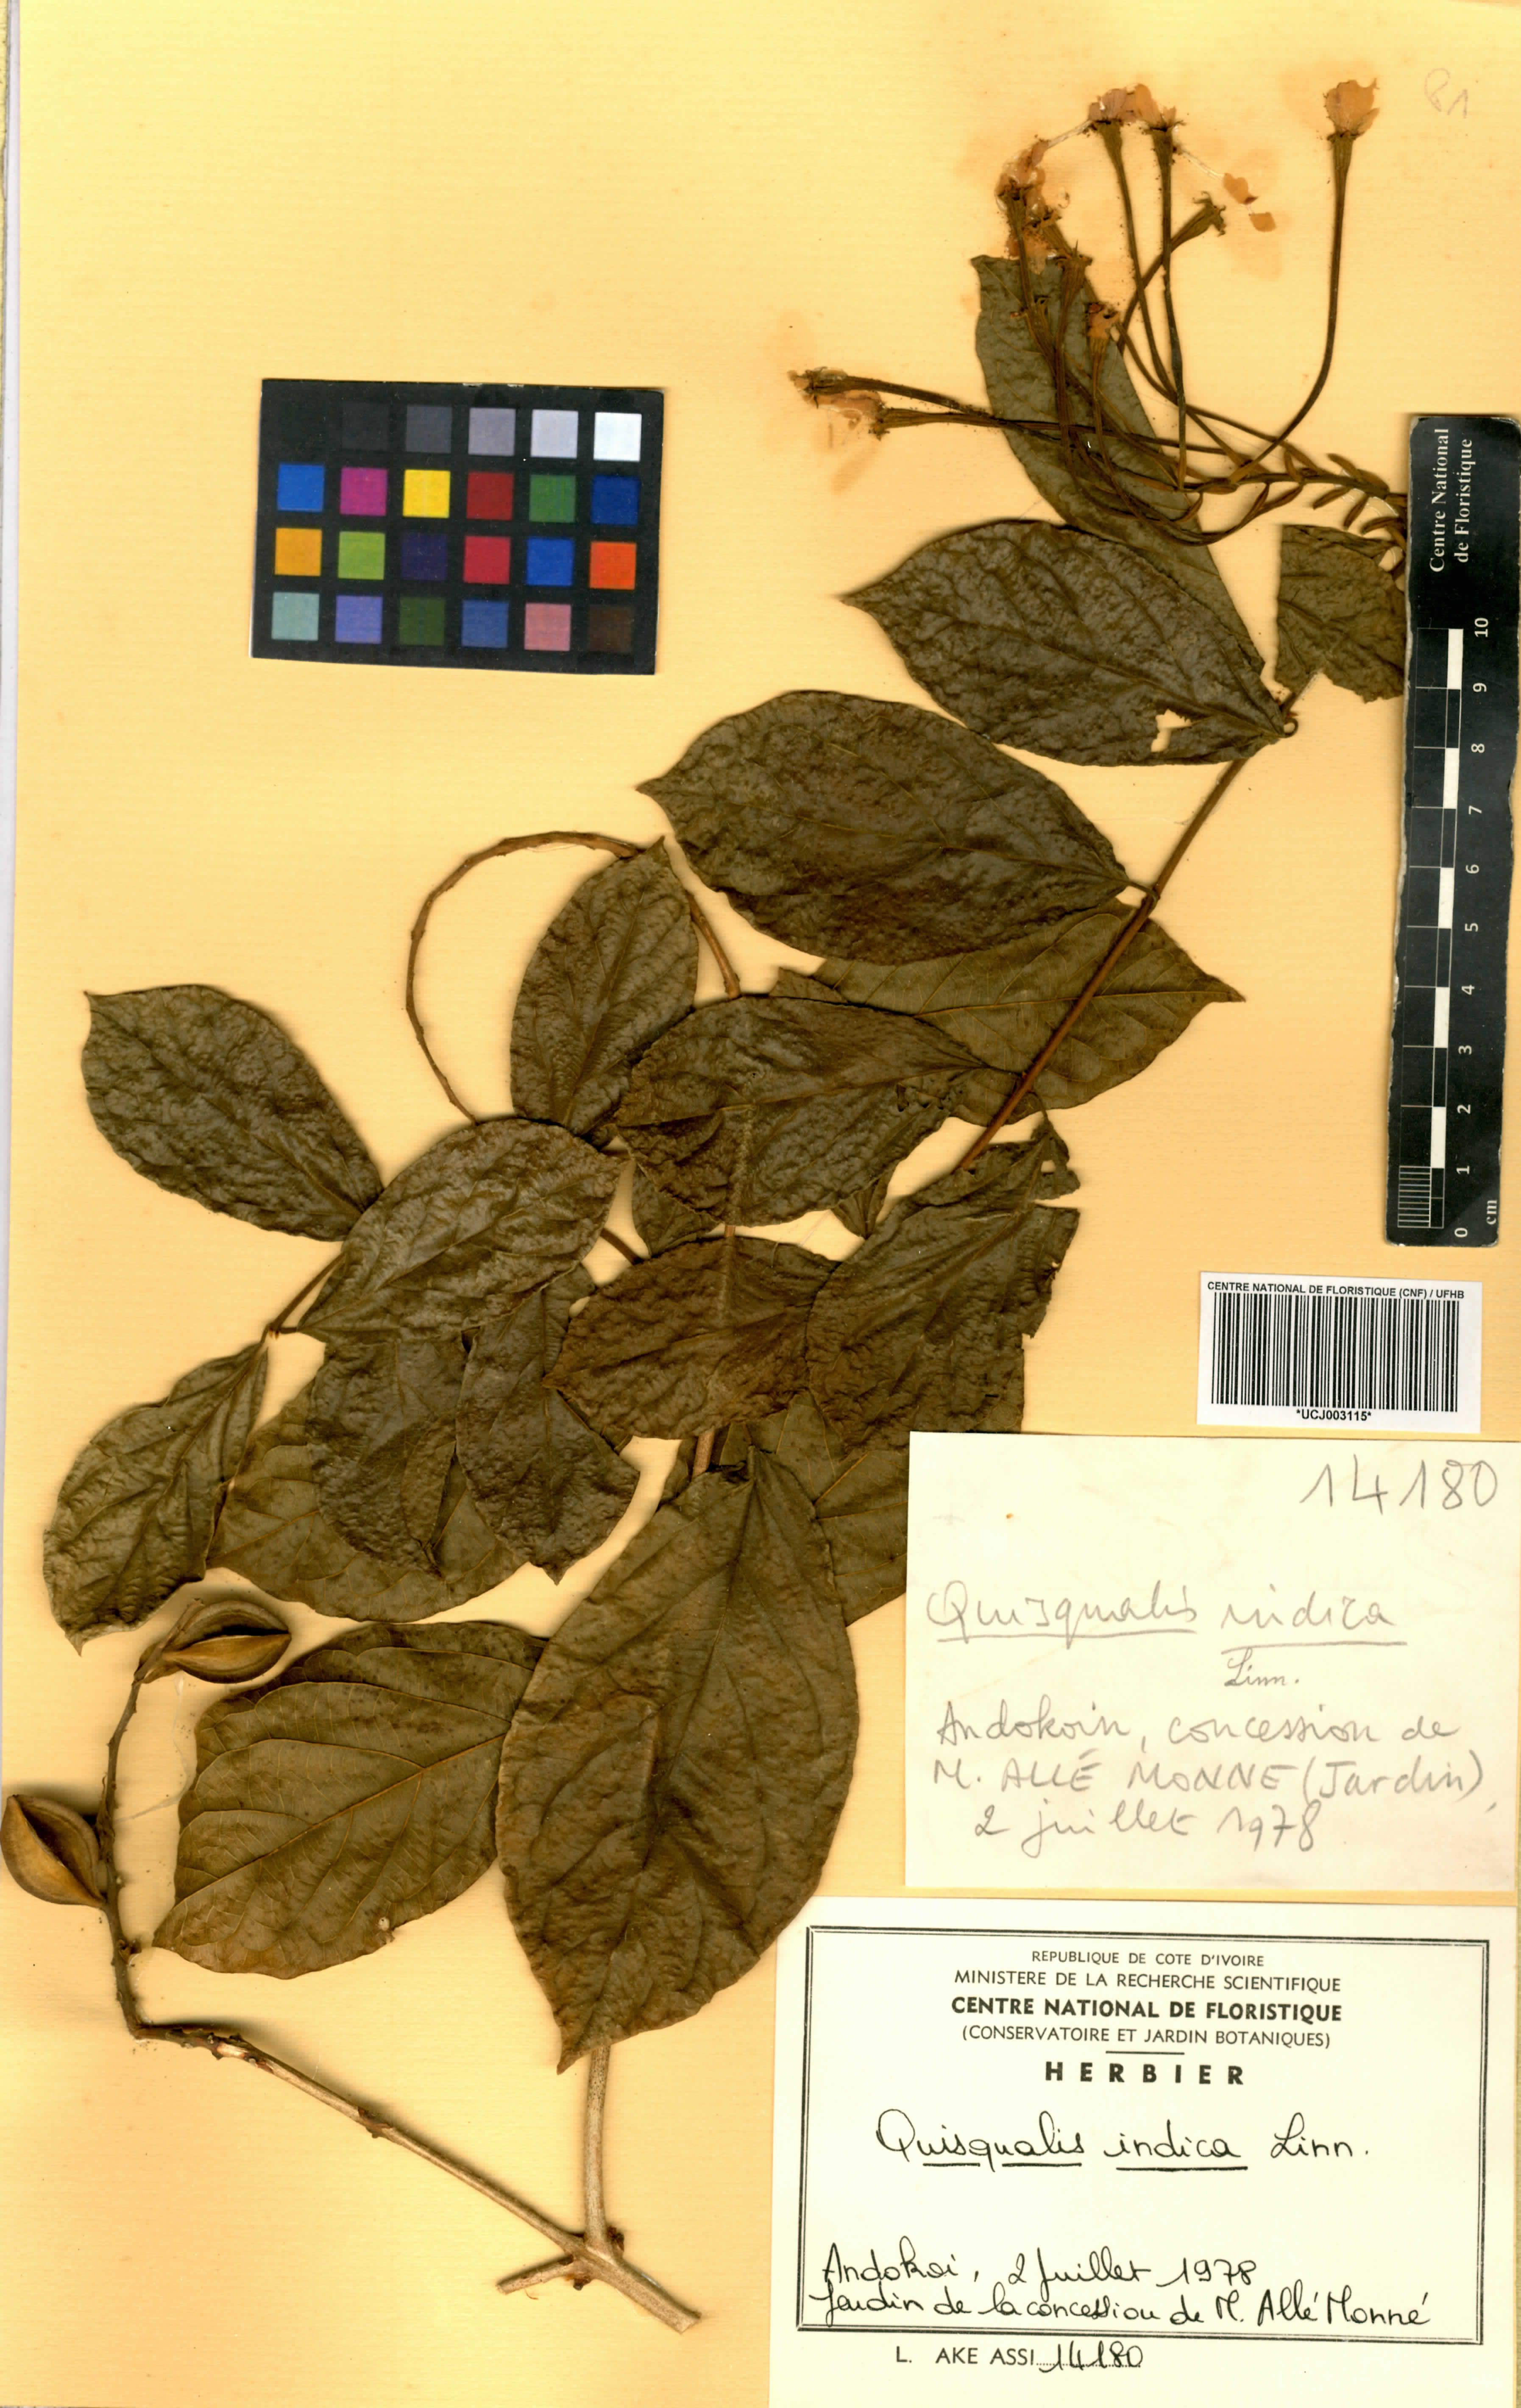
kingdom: Plantae
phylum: Tracheophyta
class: Magnoliopsida
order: Myrtales
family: Combretaceae
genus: Combretum
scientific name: Combretum indicum
